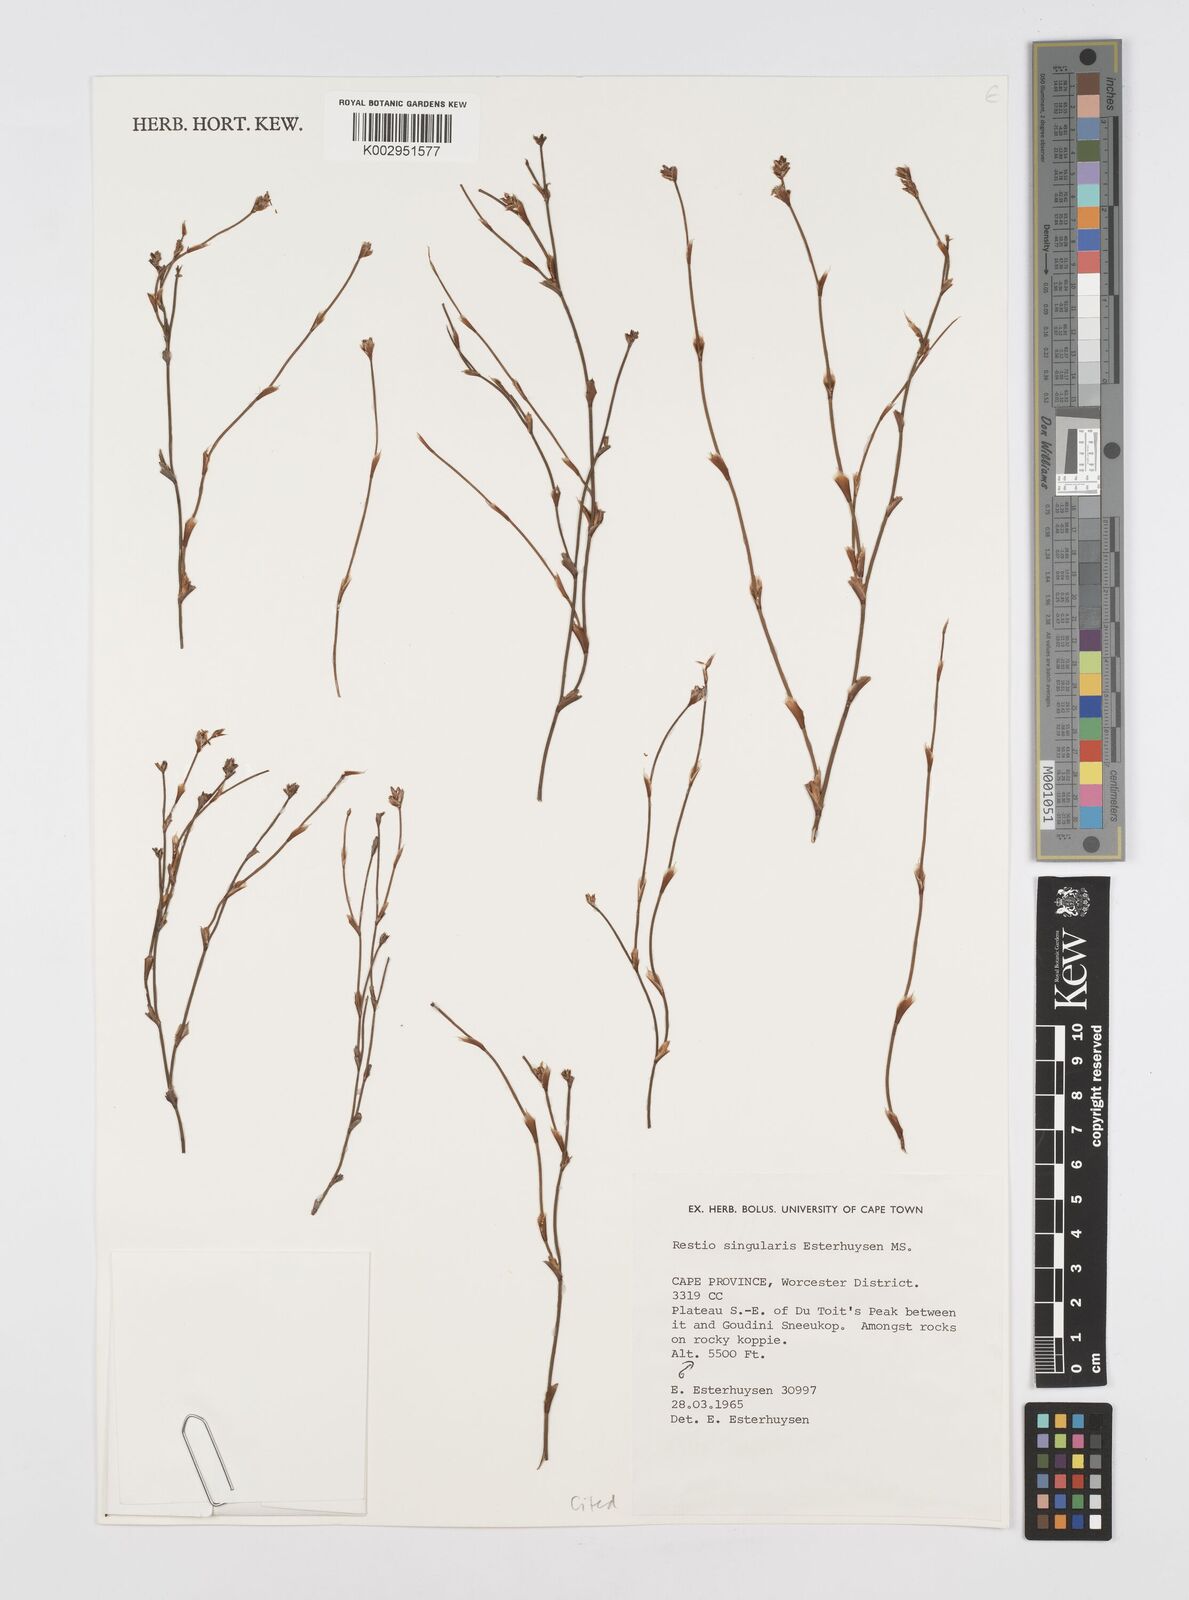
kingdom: Plantae
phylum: Tracheophyta
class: Liliopsida
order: Poales
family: Restionaceae
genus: Restio
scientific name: Restio singularis
